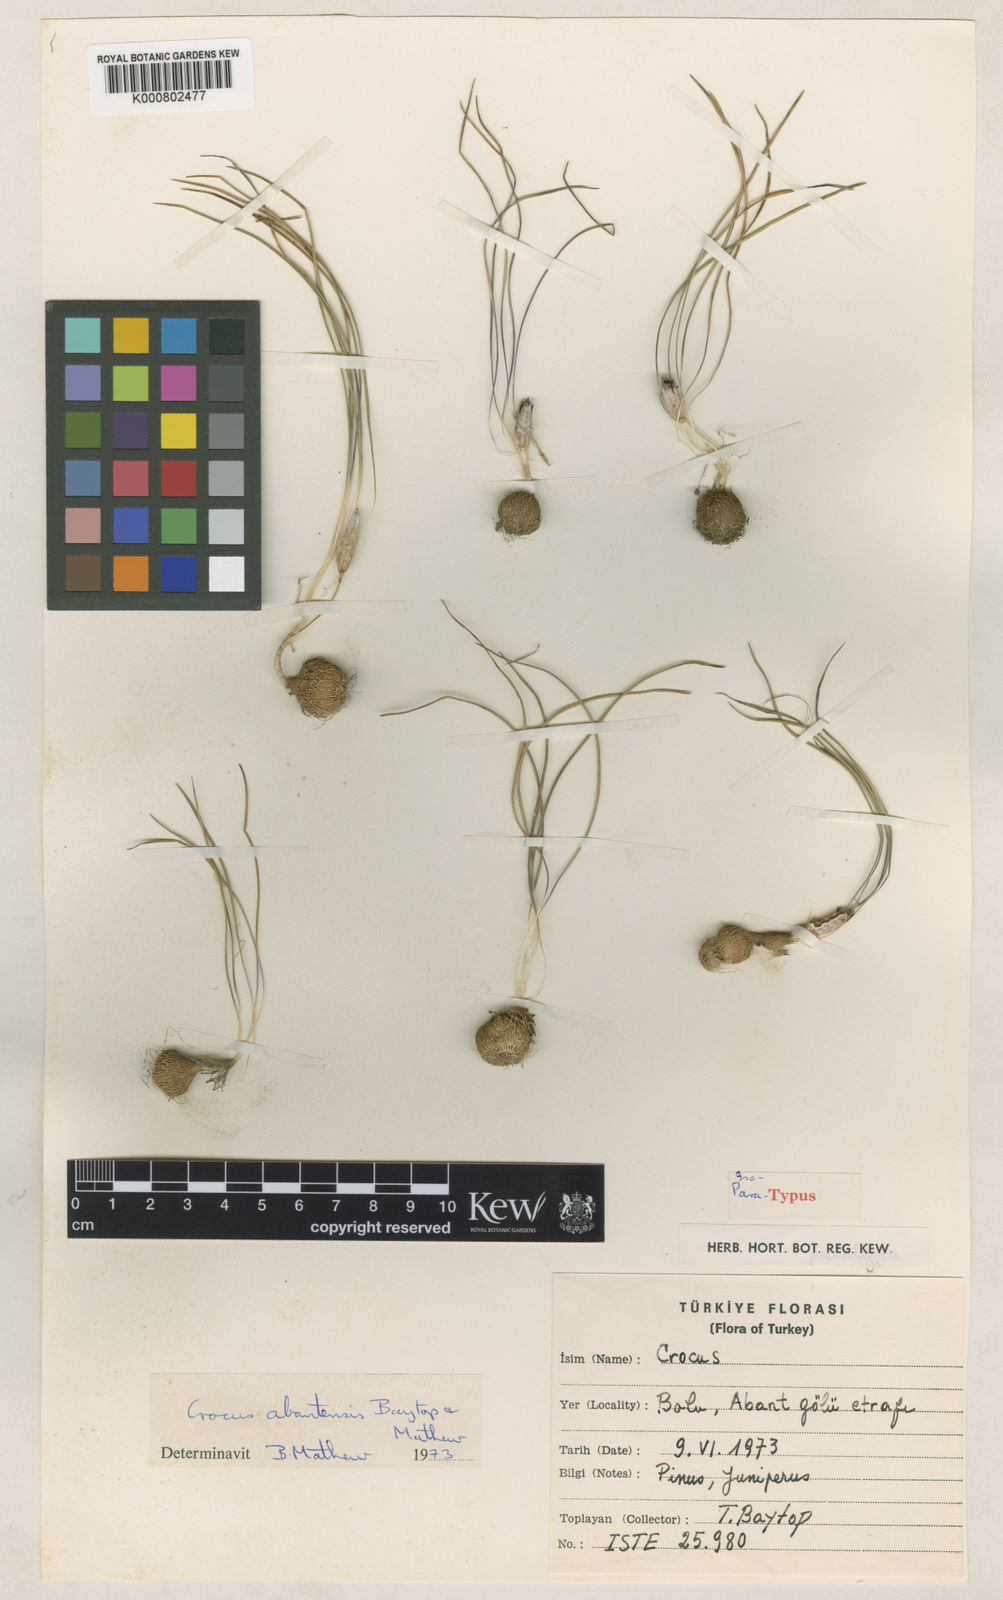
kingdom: Plantae
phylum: Tracheophyta
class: Liliopsida
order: Asparagales
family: Iridaceae
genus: Crocus
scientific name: Crocus abantensis
